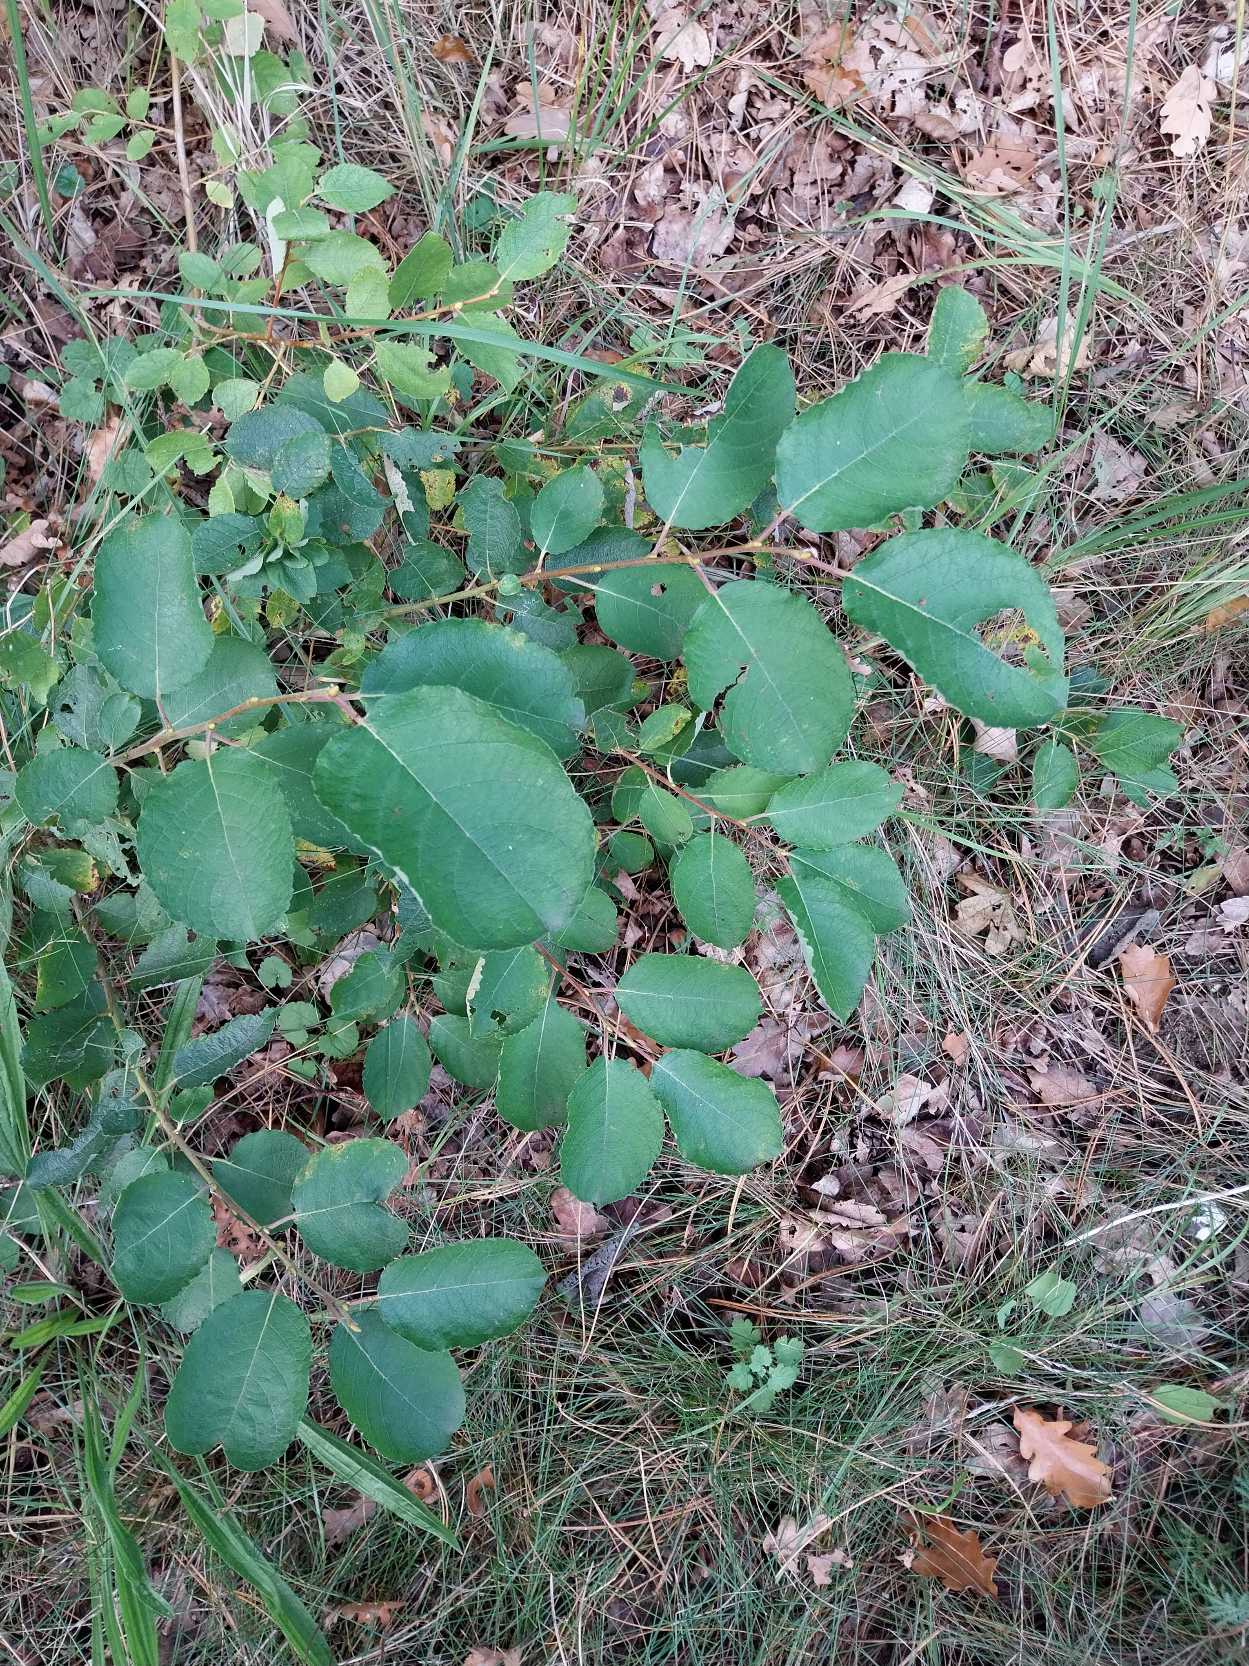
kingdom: Plantae
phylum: Tracheophyta
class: Magnoliopsida
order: Malpighiales
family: Salicaceae
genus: Salix
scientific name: Salix caprea
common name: Selje-pil
